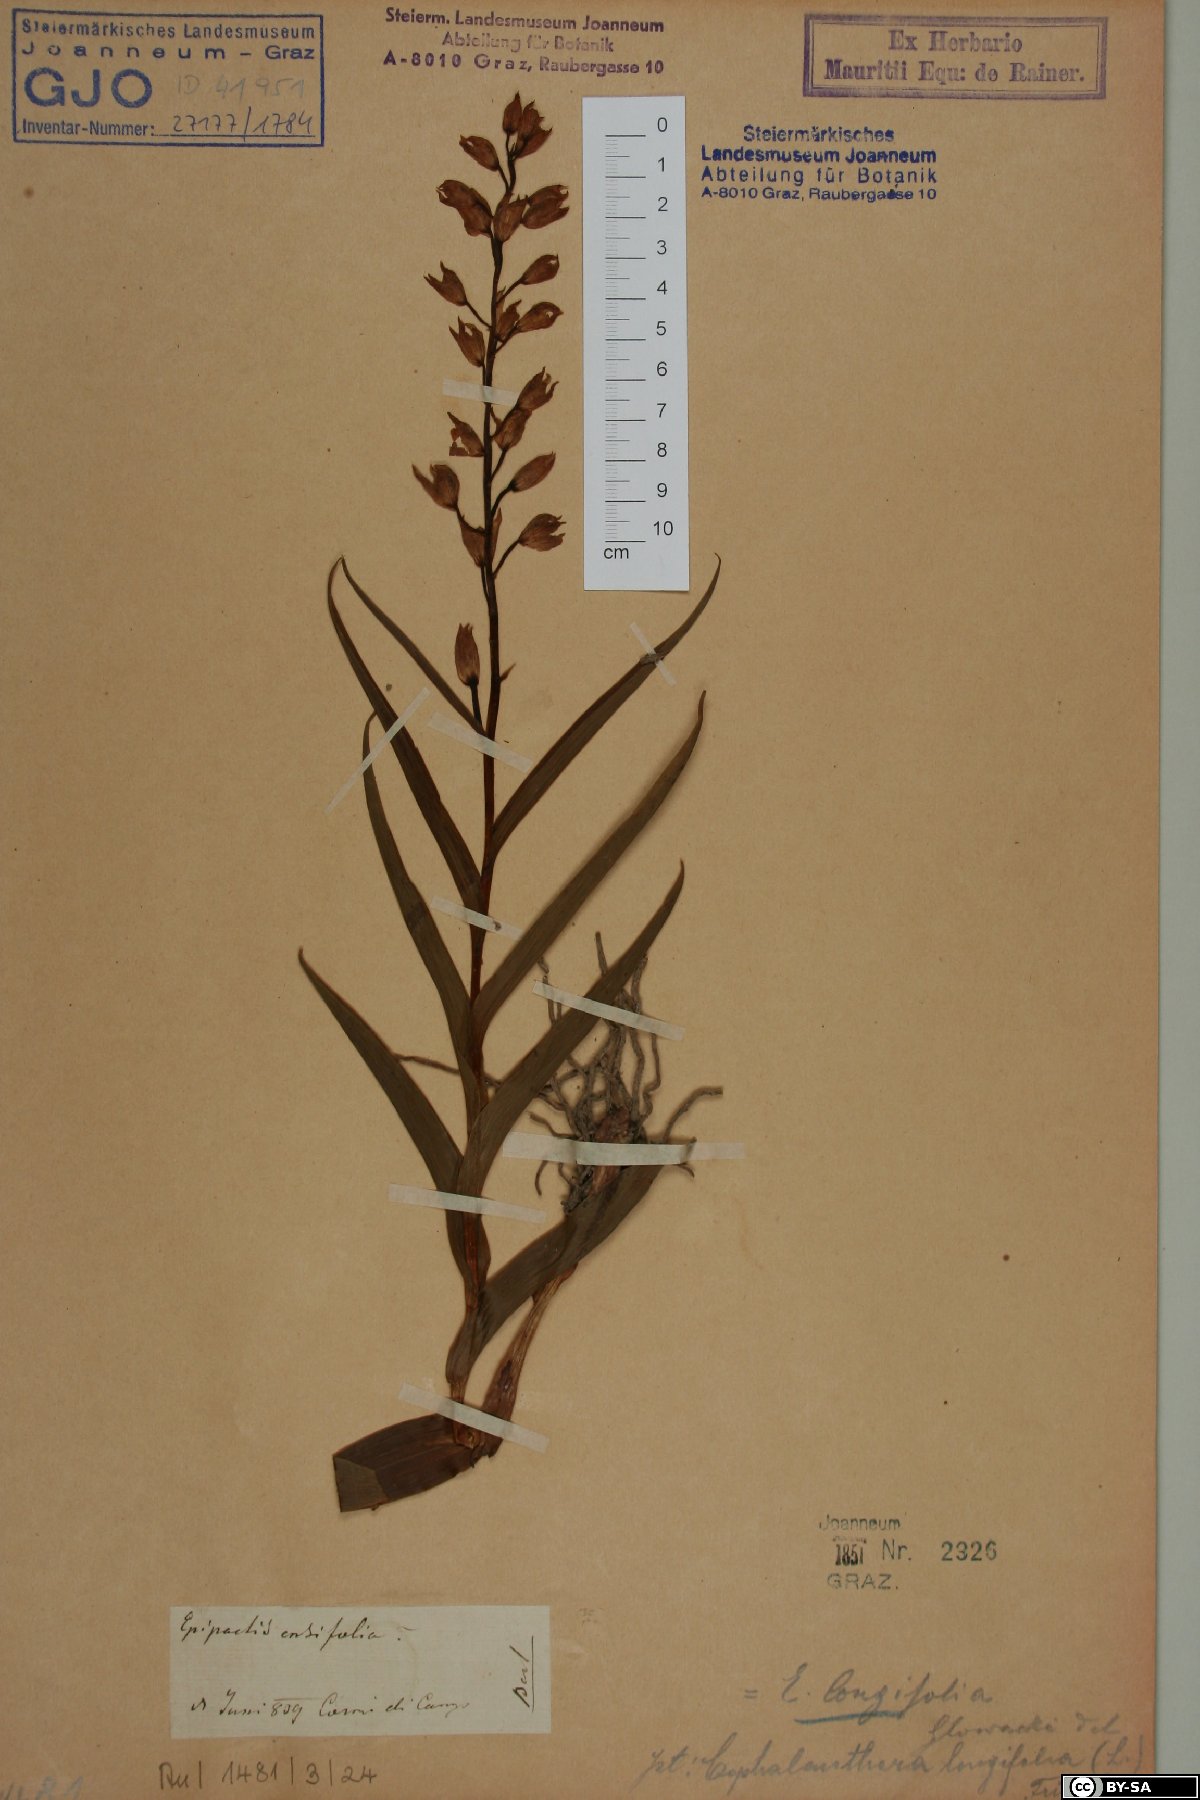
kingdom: Plantae
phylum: Tracheophyta
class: Liliopsida
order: Asparagales
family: Orchidaceae
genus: Cephalanthera
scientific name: Cephalanthera longifolia
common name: Narrow-leaved helleborine
